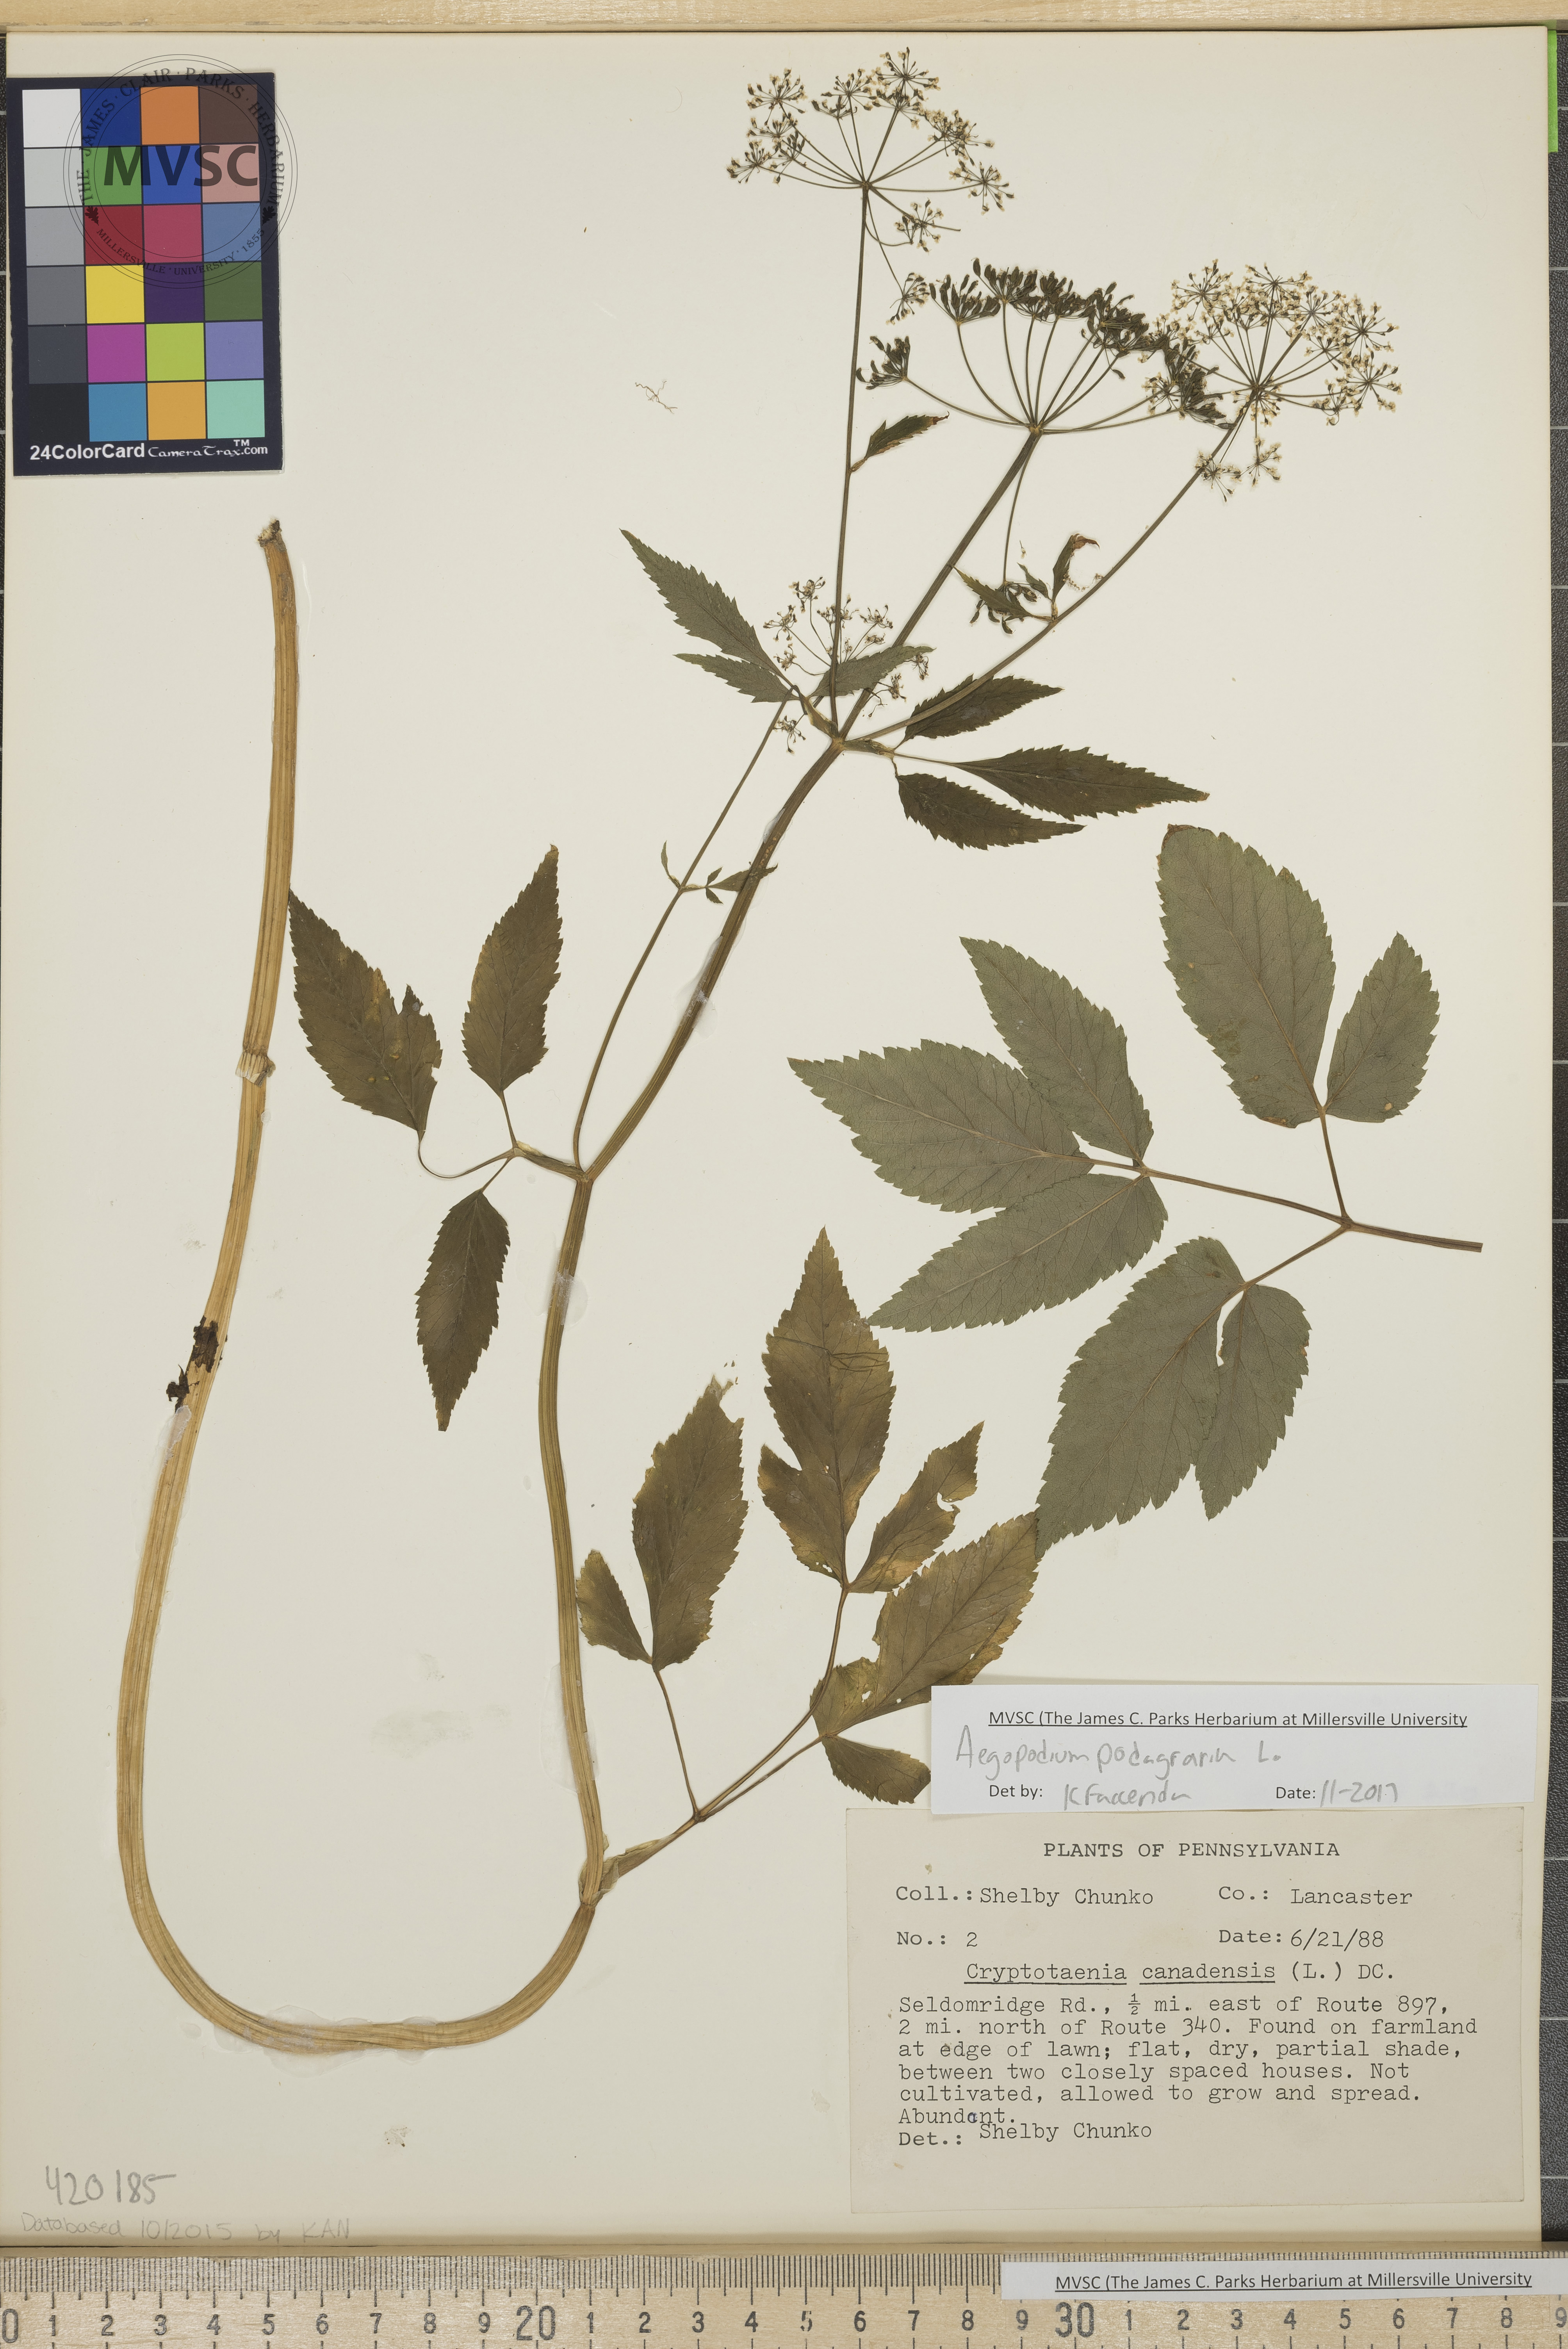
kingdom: Plantae
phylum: Tracheophyta
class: Magnoliopsida
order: Apiales
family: Apiaceae
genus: Aegopodium
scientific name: Aegopodium podagraria
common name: Goutweed
